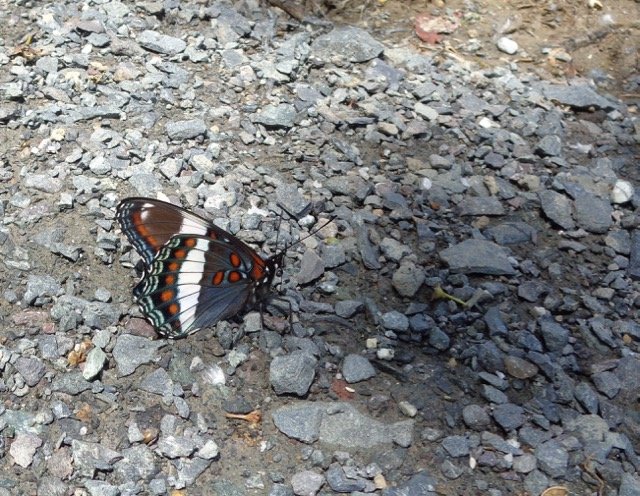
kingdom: Animalia
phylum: Arthropoda
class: Insecta
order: Lepidoptera
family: Nymphalidae
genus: Limenitis
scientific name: Limenitis arthemis
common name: Red-spotted Admiral
